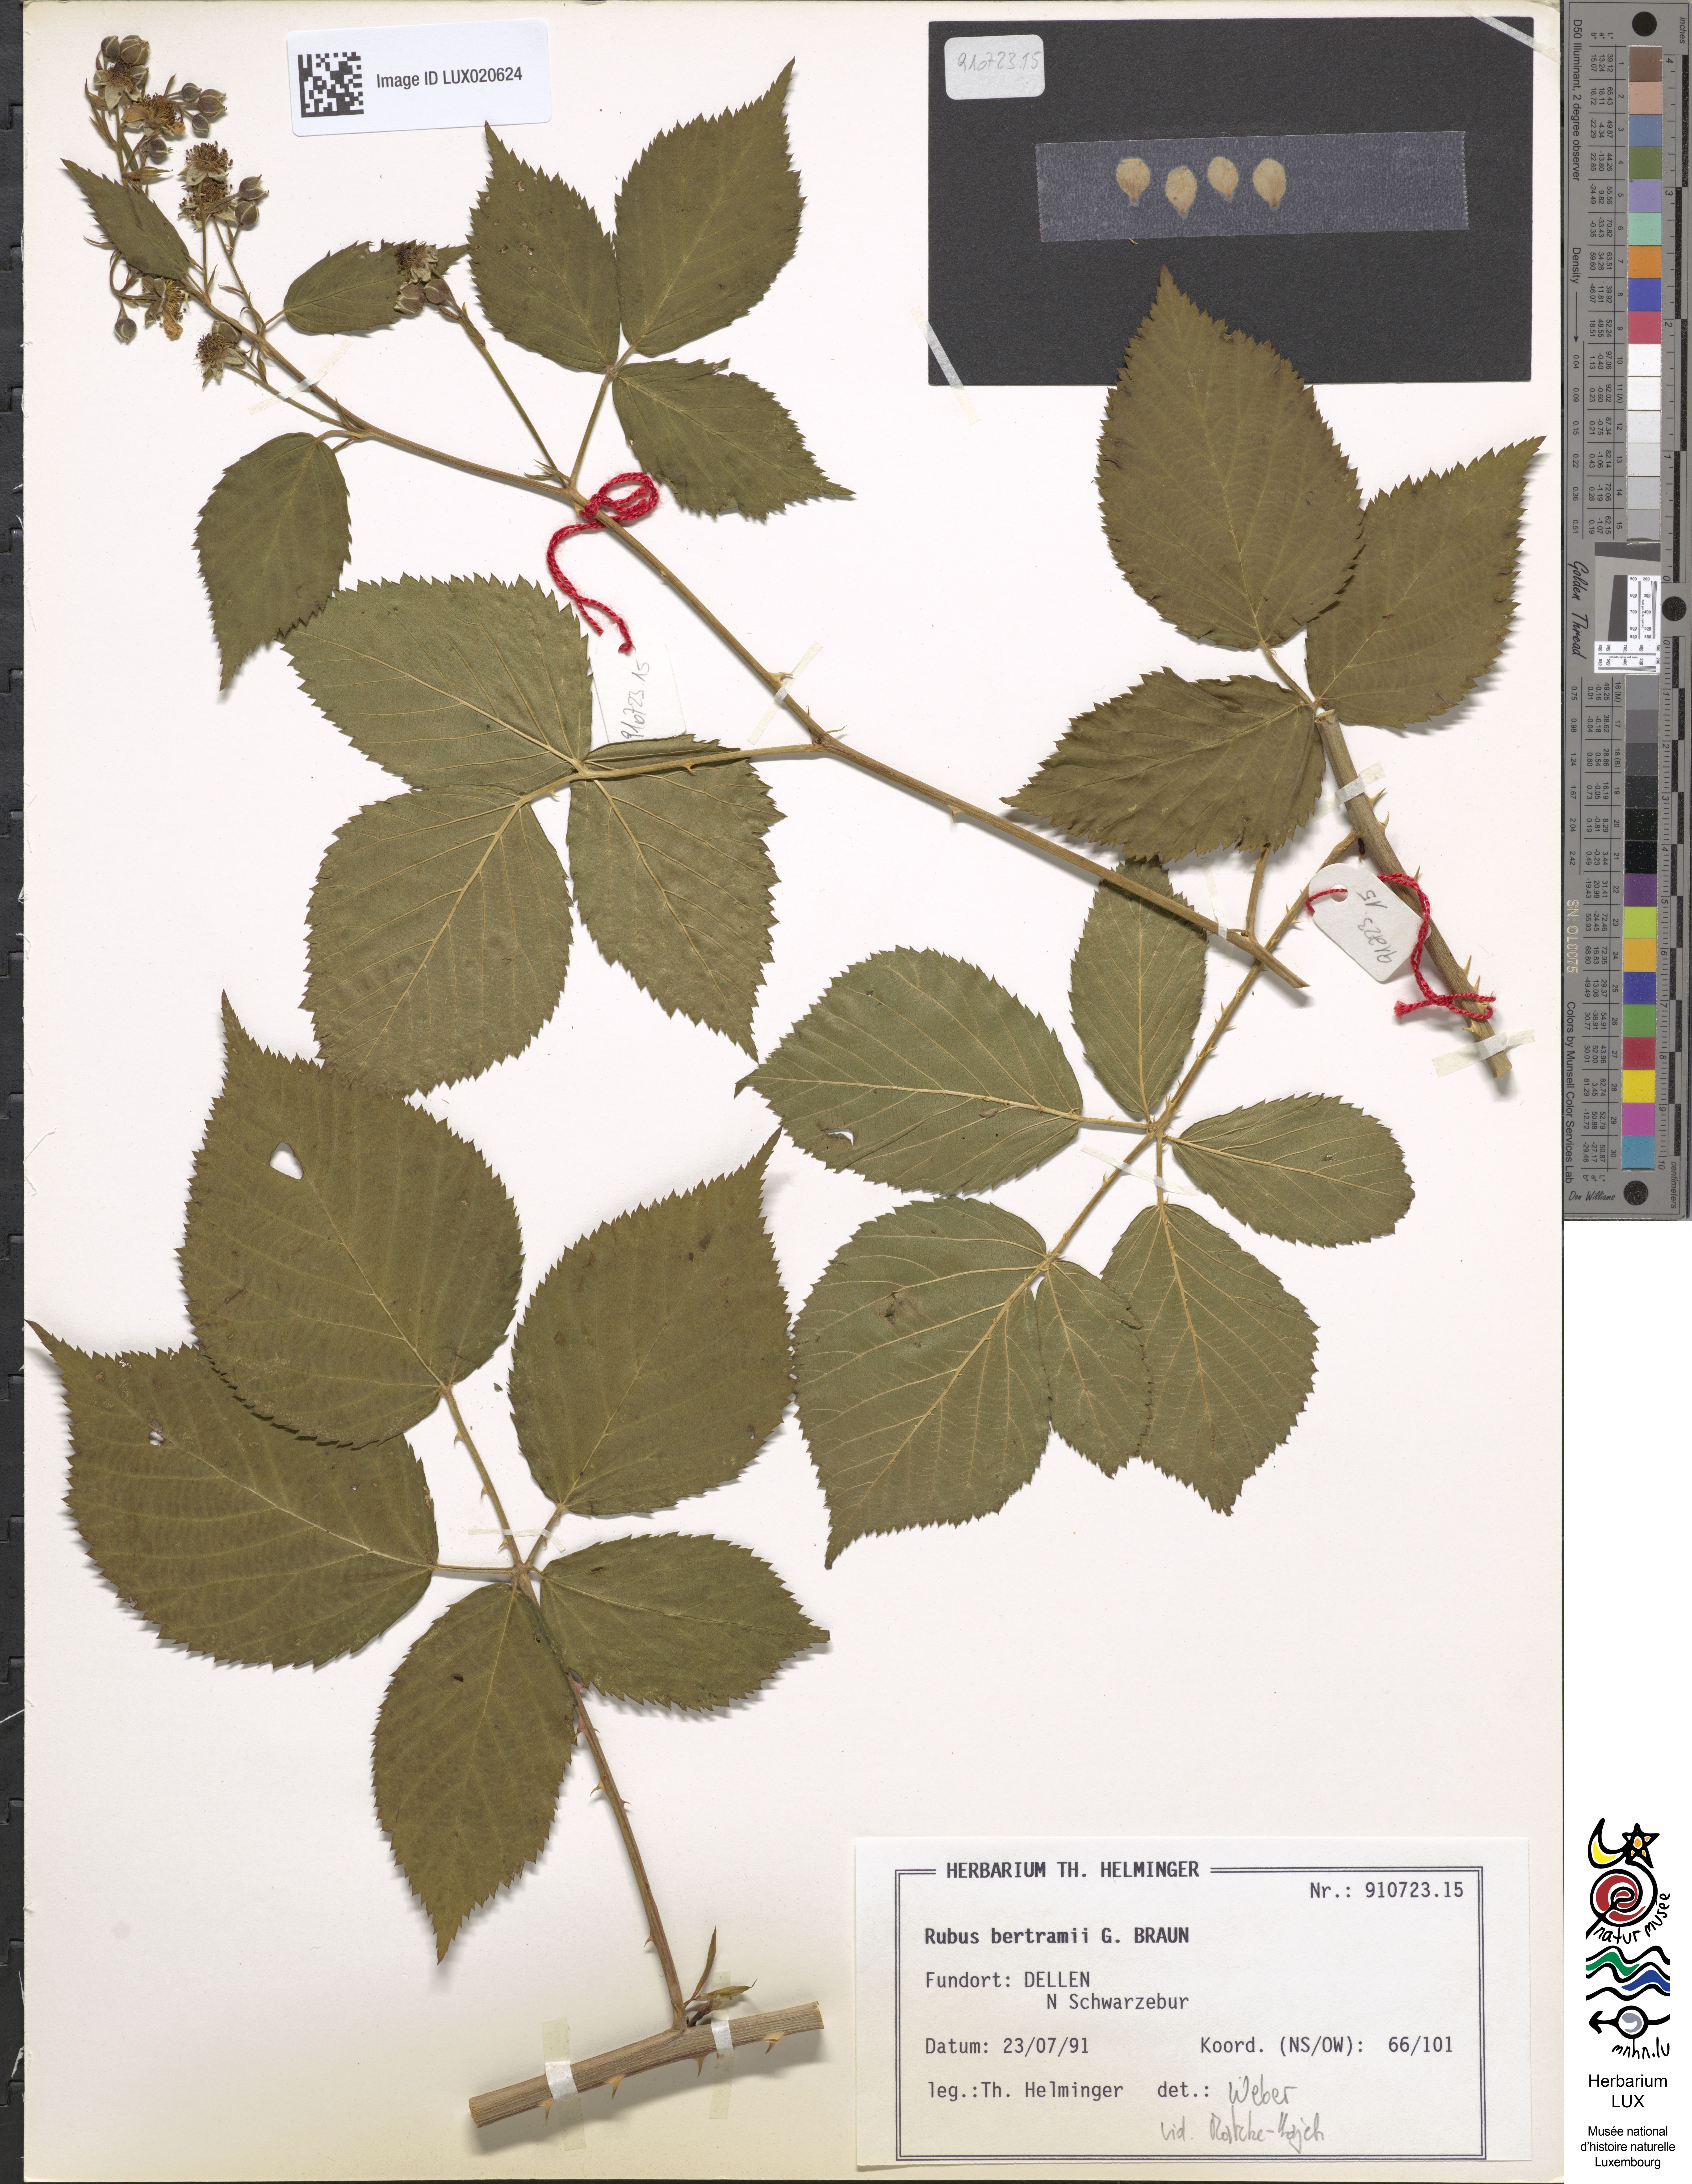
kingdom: Plantae
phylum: Tracheophyta
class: Magnoliopsida
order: Rosales
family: Rosaceae
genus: Rubus
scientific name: Rubus bertramii
